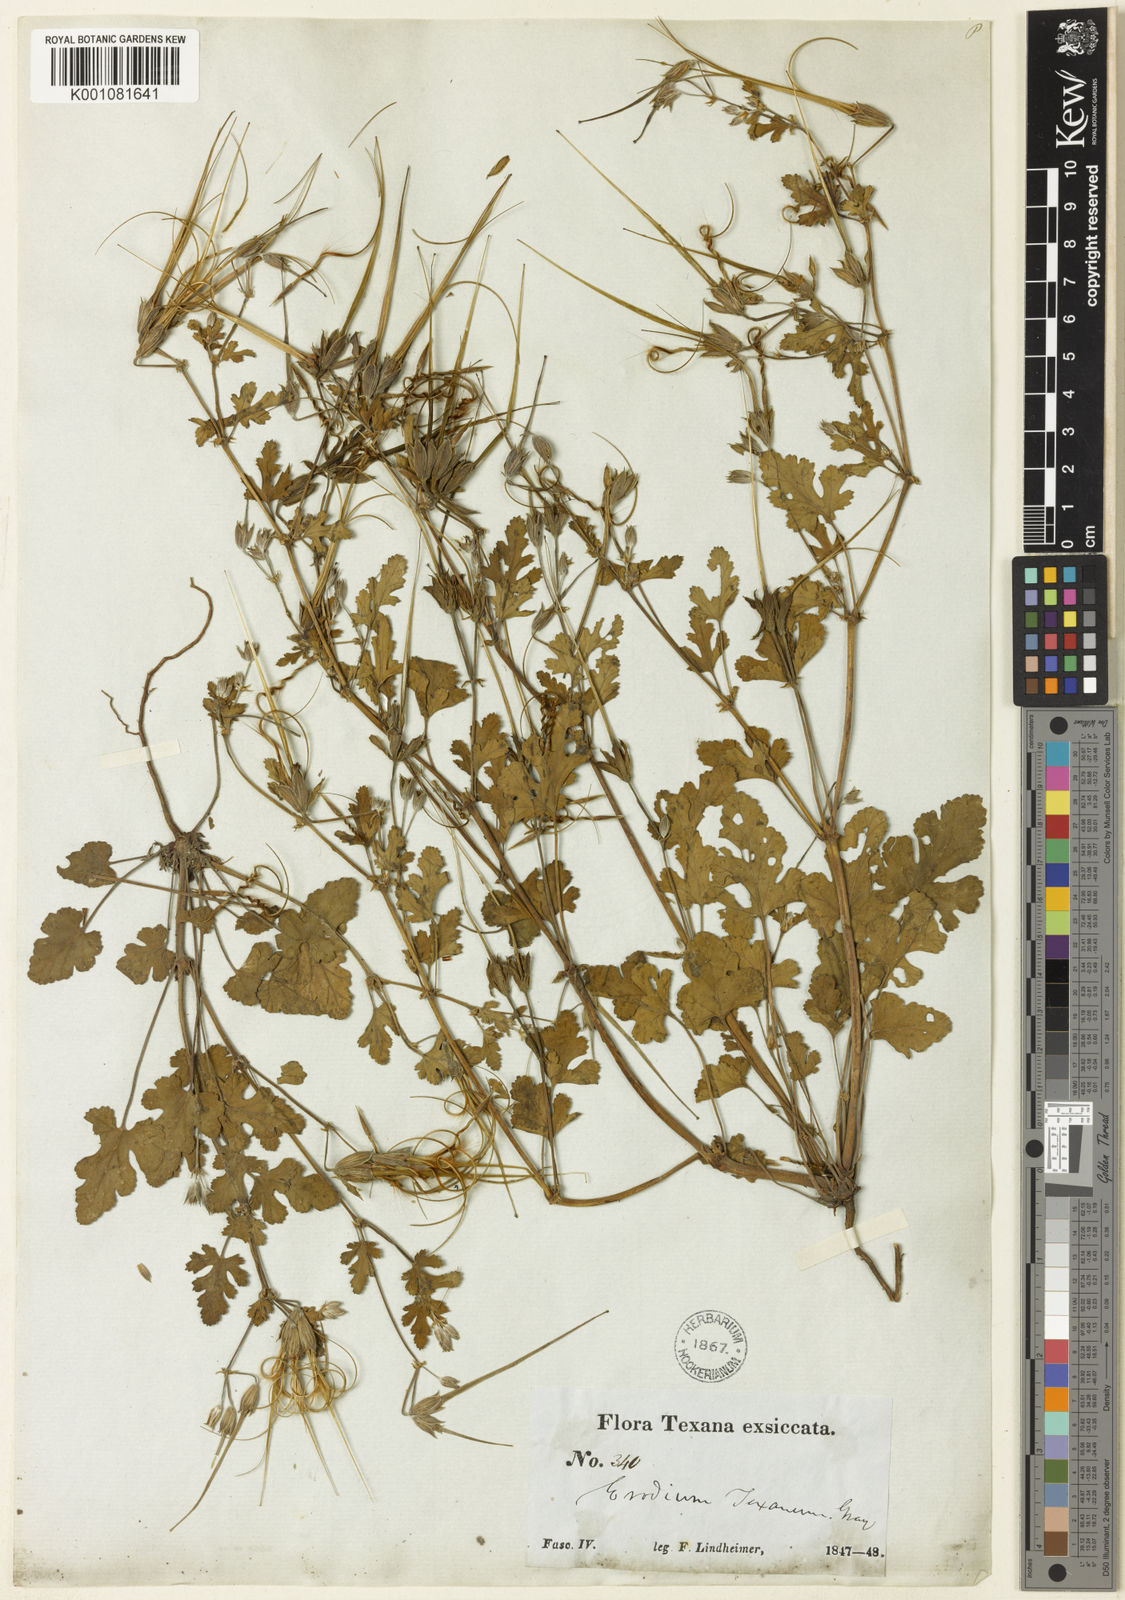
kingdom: Plantae
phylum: Tracheophyta
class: Magnoliopsida
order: Geraniales
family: Geraniaceae
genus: Erodium
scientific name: Erodium texanum
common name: Texas stork's-bill
